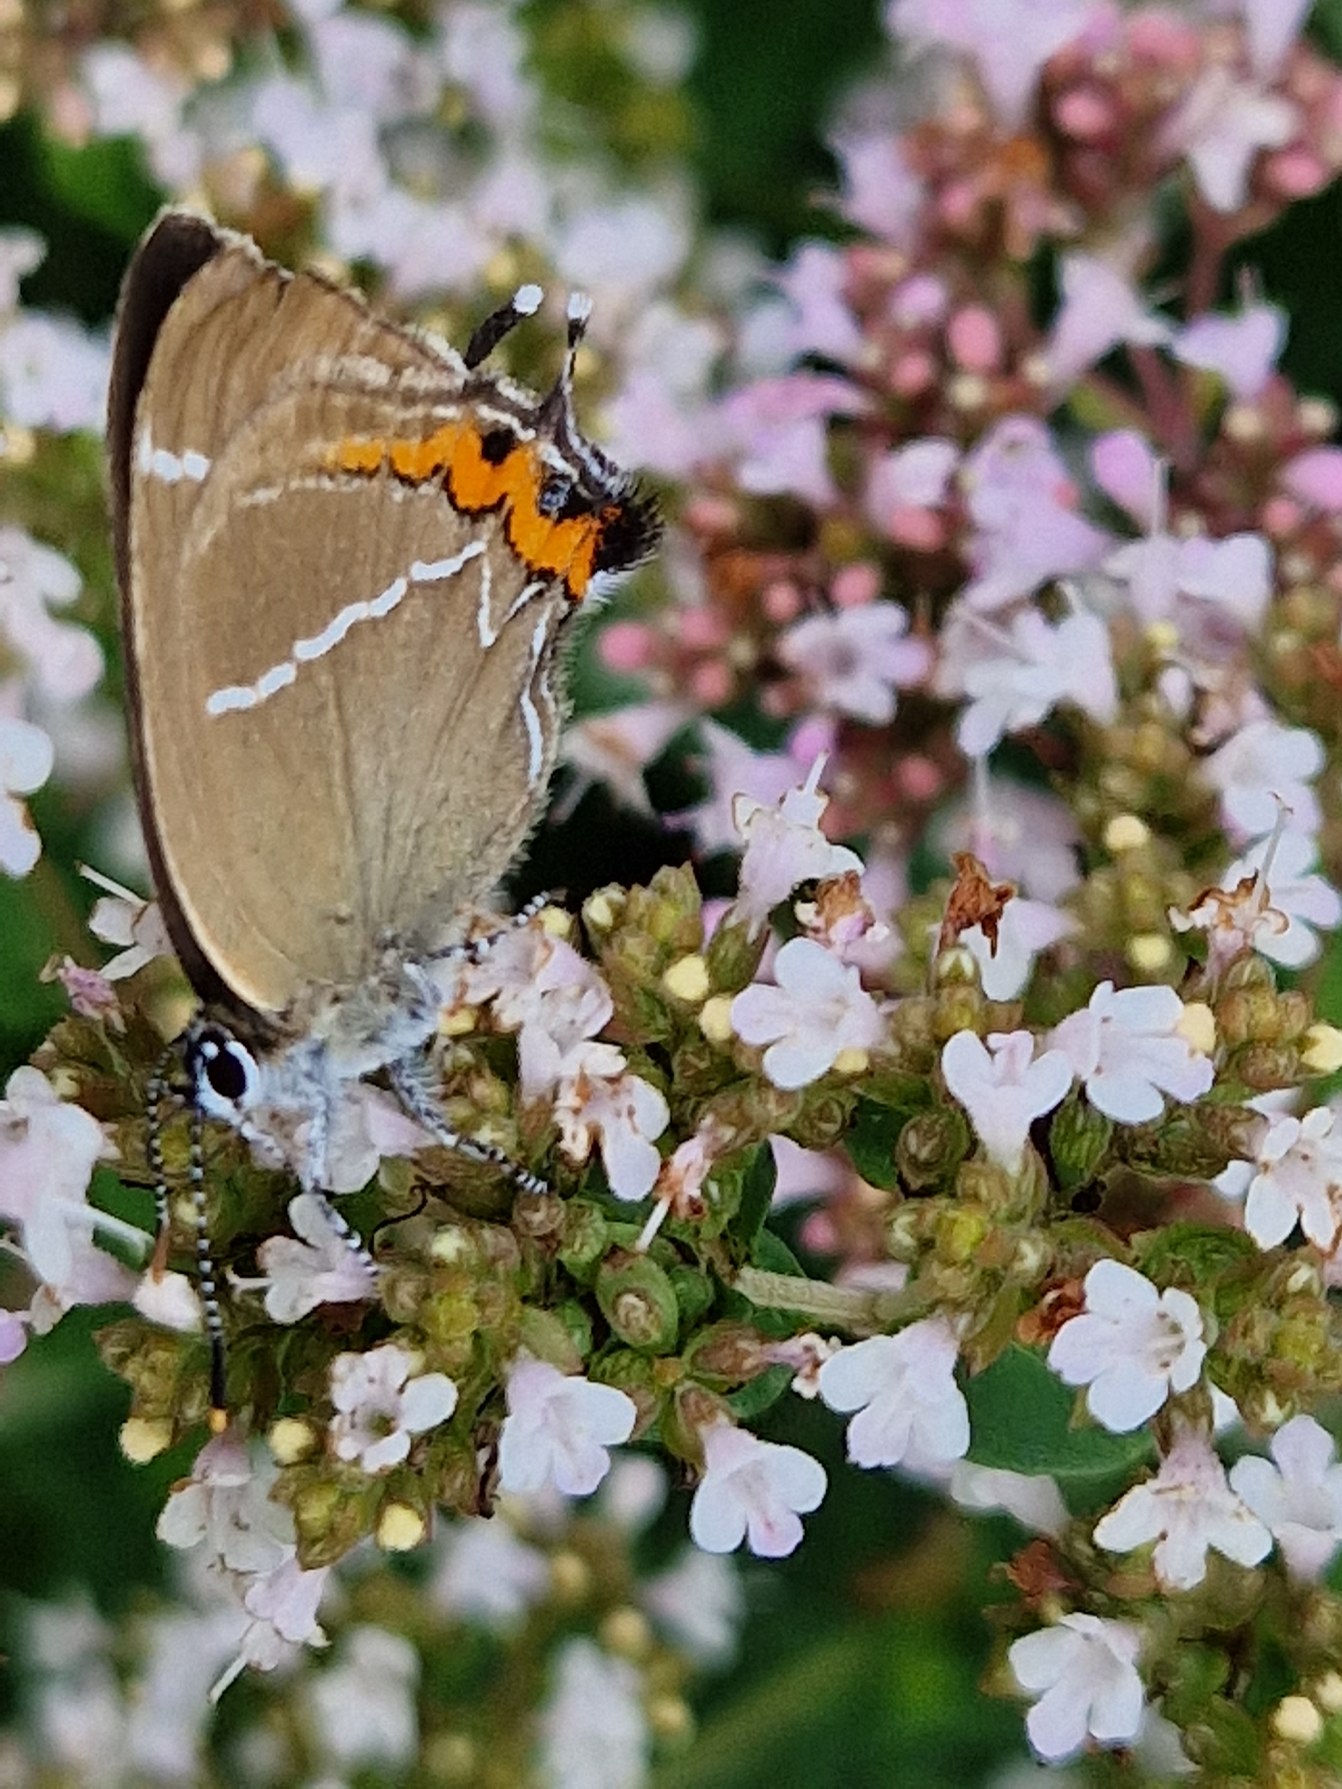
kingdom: Animalia
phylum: Arthropoda
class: Insecta
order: Lepidoptera
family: Lycaenidae
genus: Satyrium
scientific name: Satyrium w-album
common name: Det hvide W
